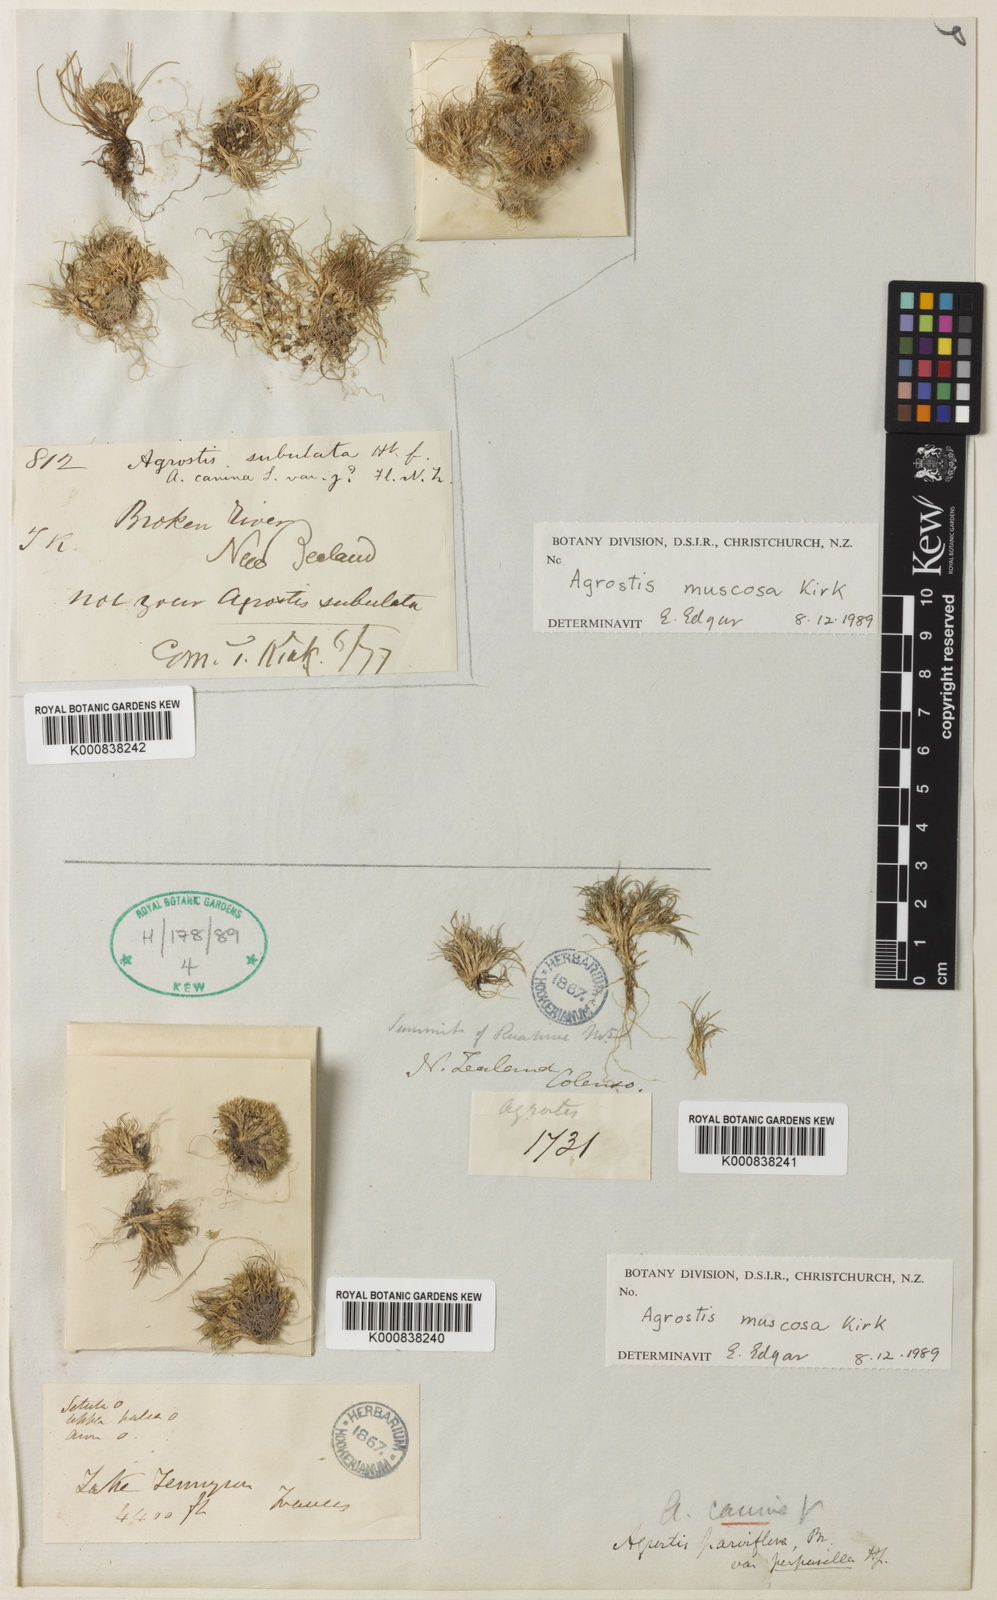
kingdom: Plantae
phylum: Tracheophyta
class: Liliopsida
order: Poales
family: Poaceae
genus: Agrostis
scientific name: Agrostis muscosa
